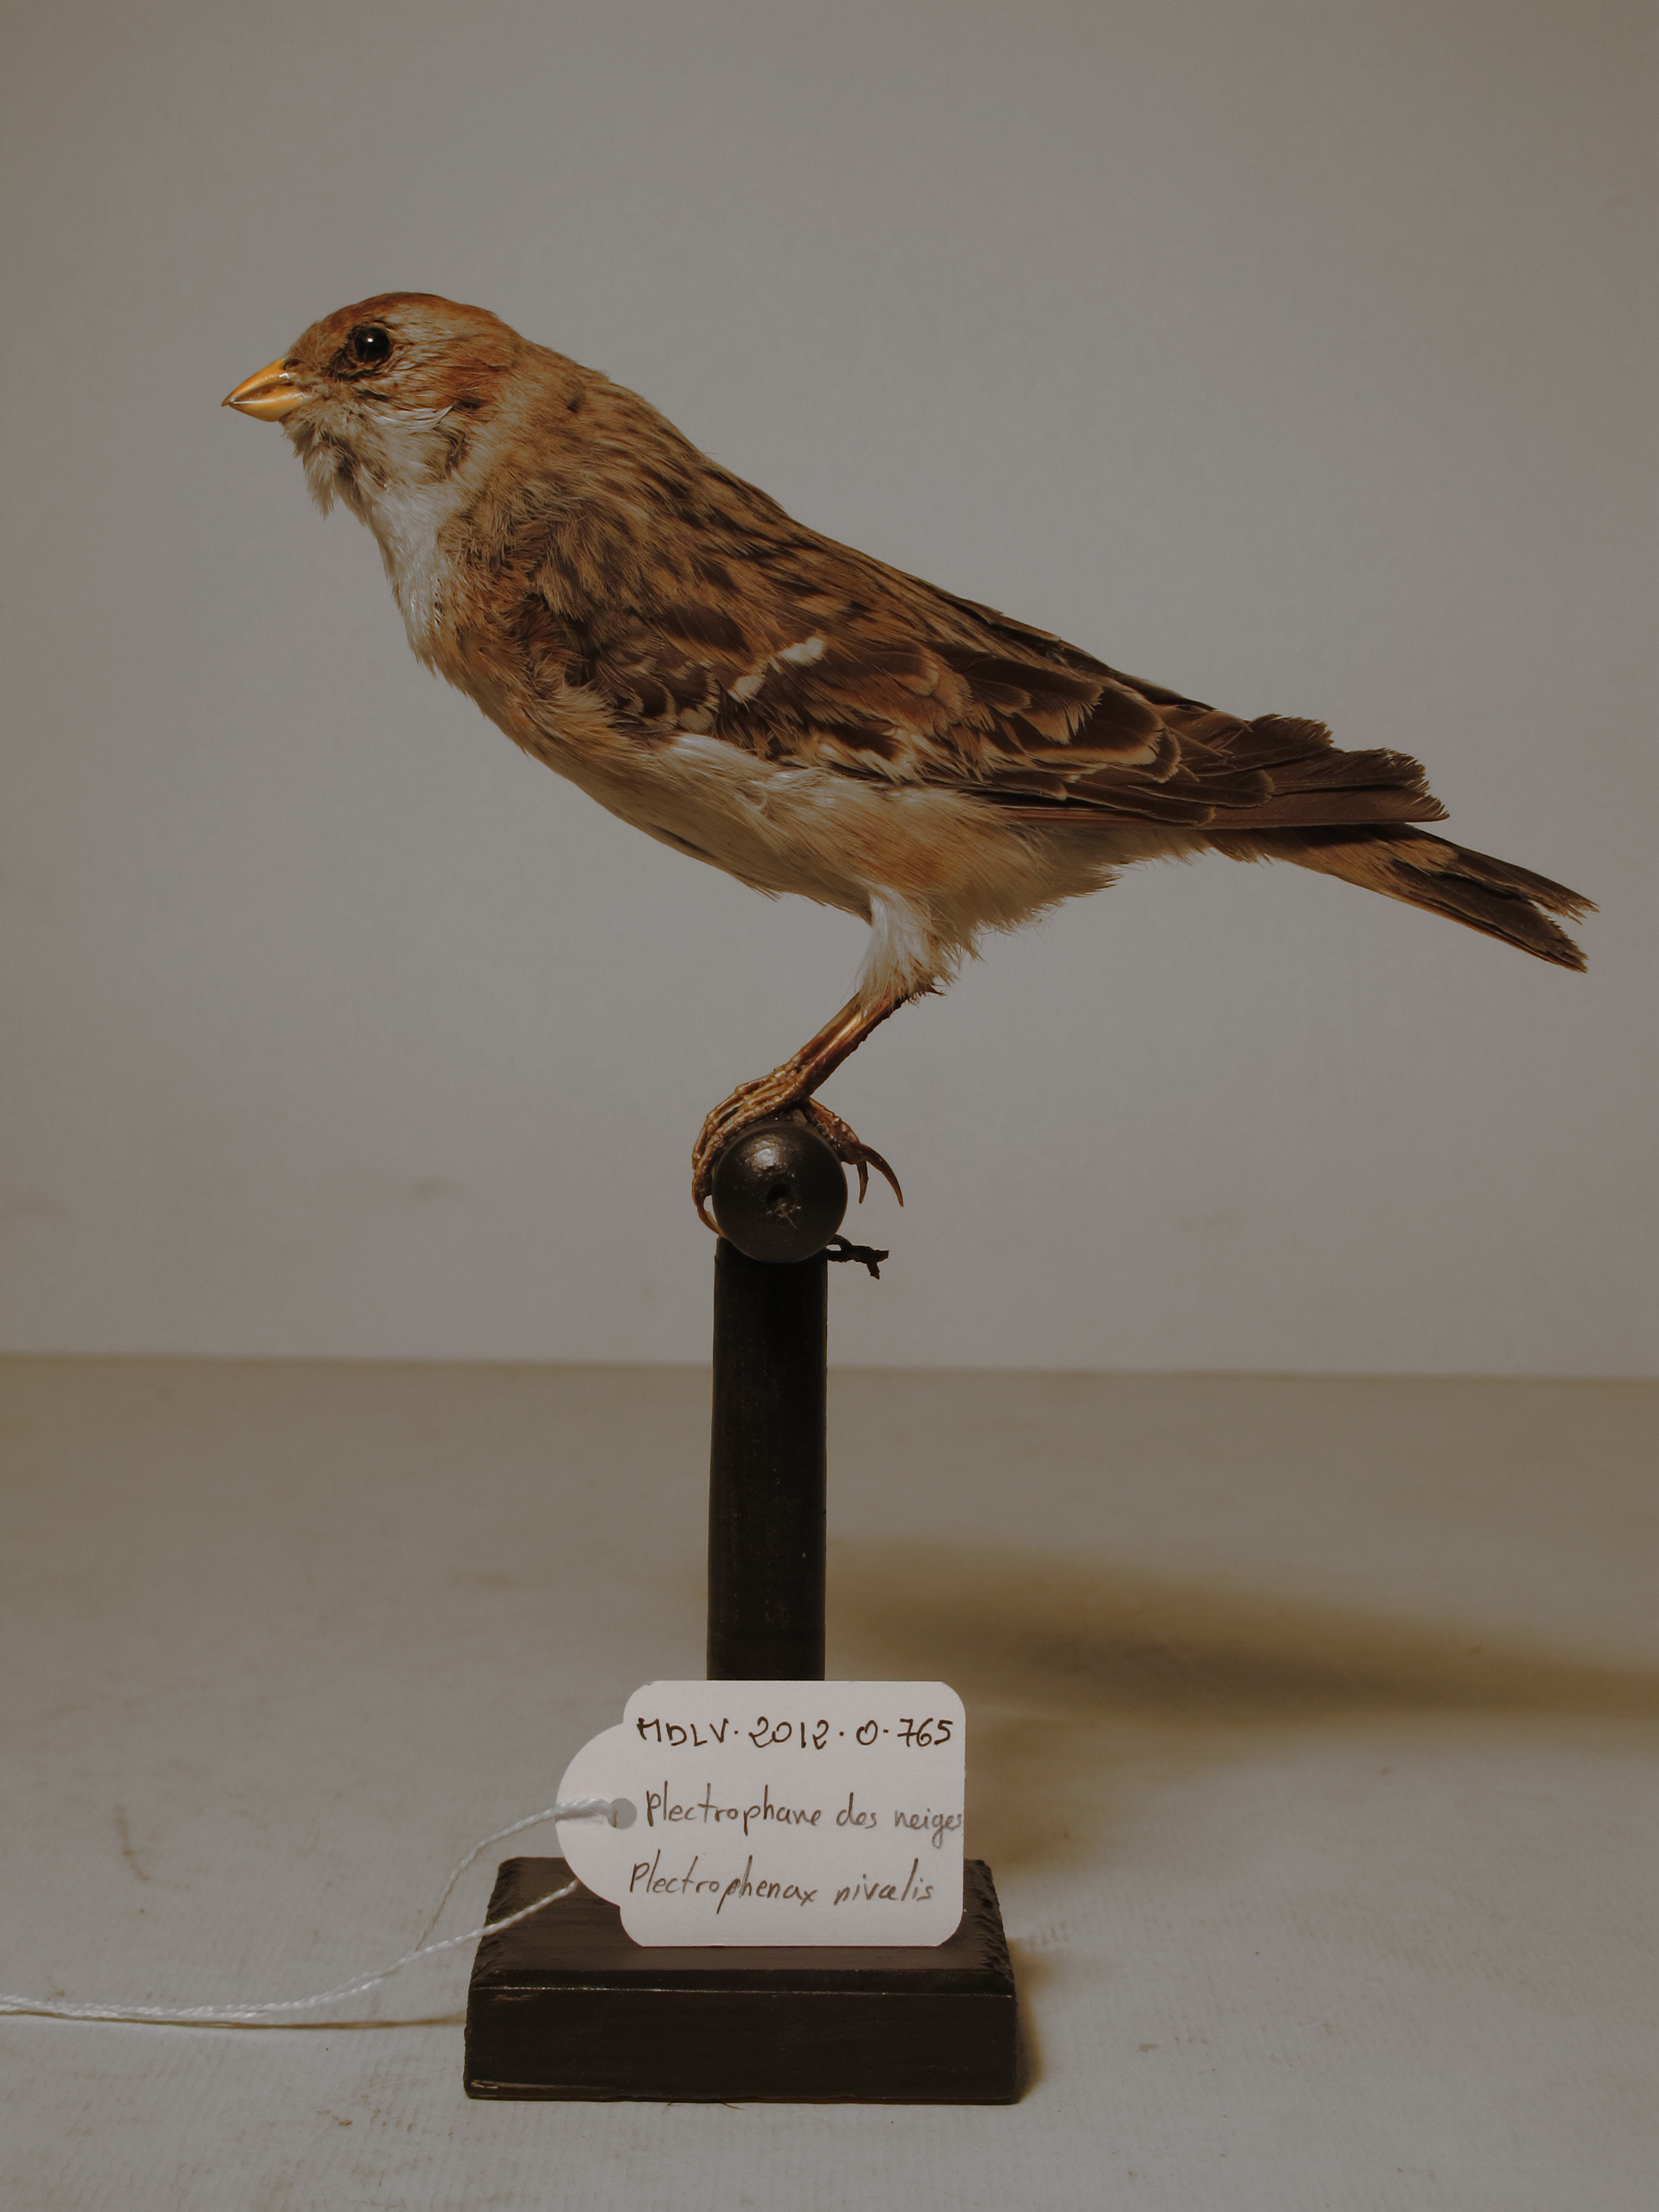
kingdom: Animalia
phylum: Chordata
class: Aves
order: Passeriformes
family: Calcariidae
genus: Plectrophenax
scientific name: Plectrophenax nivalis
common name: Snow Bunting
